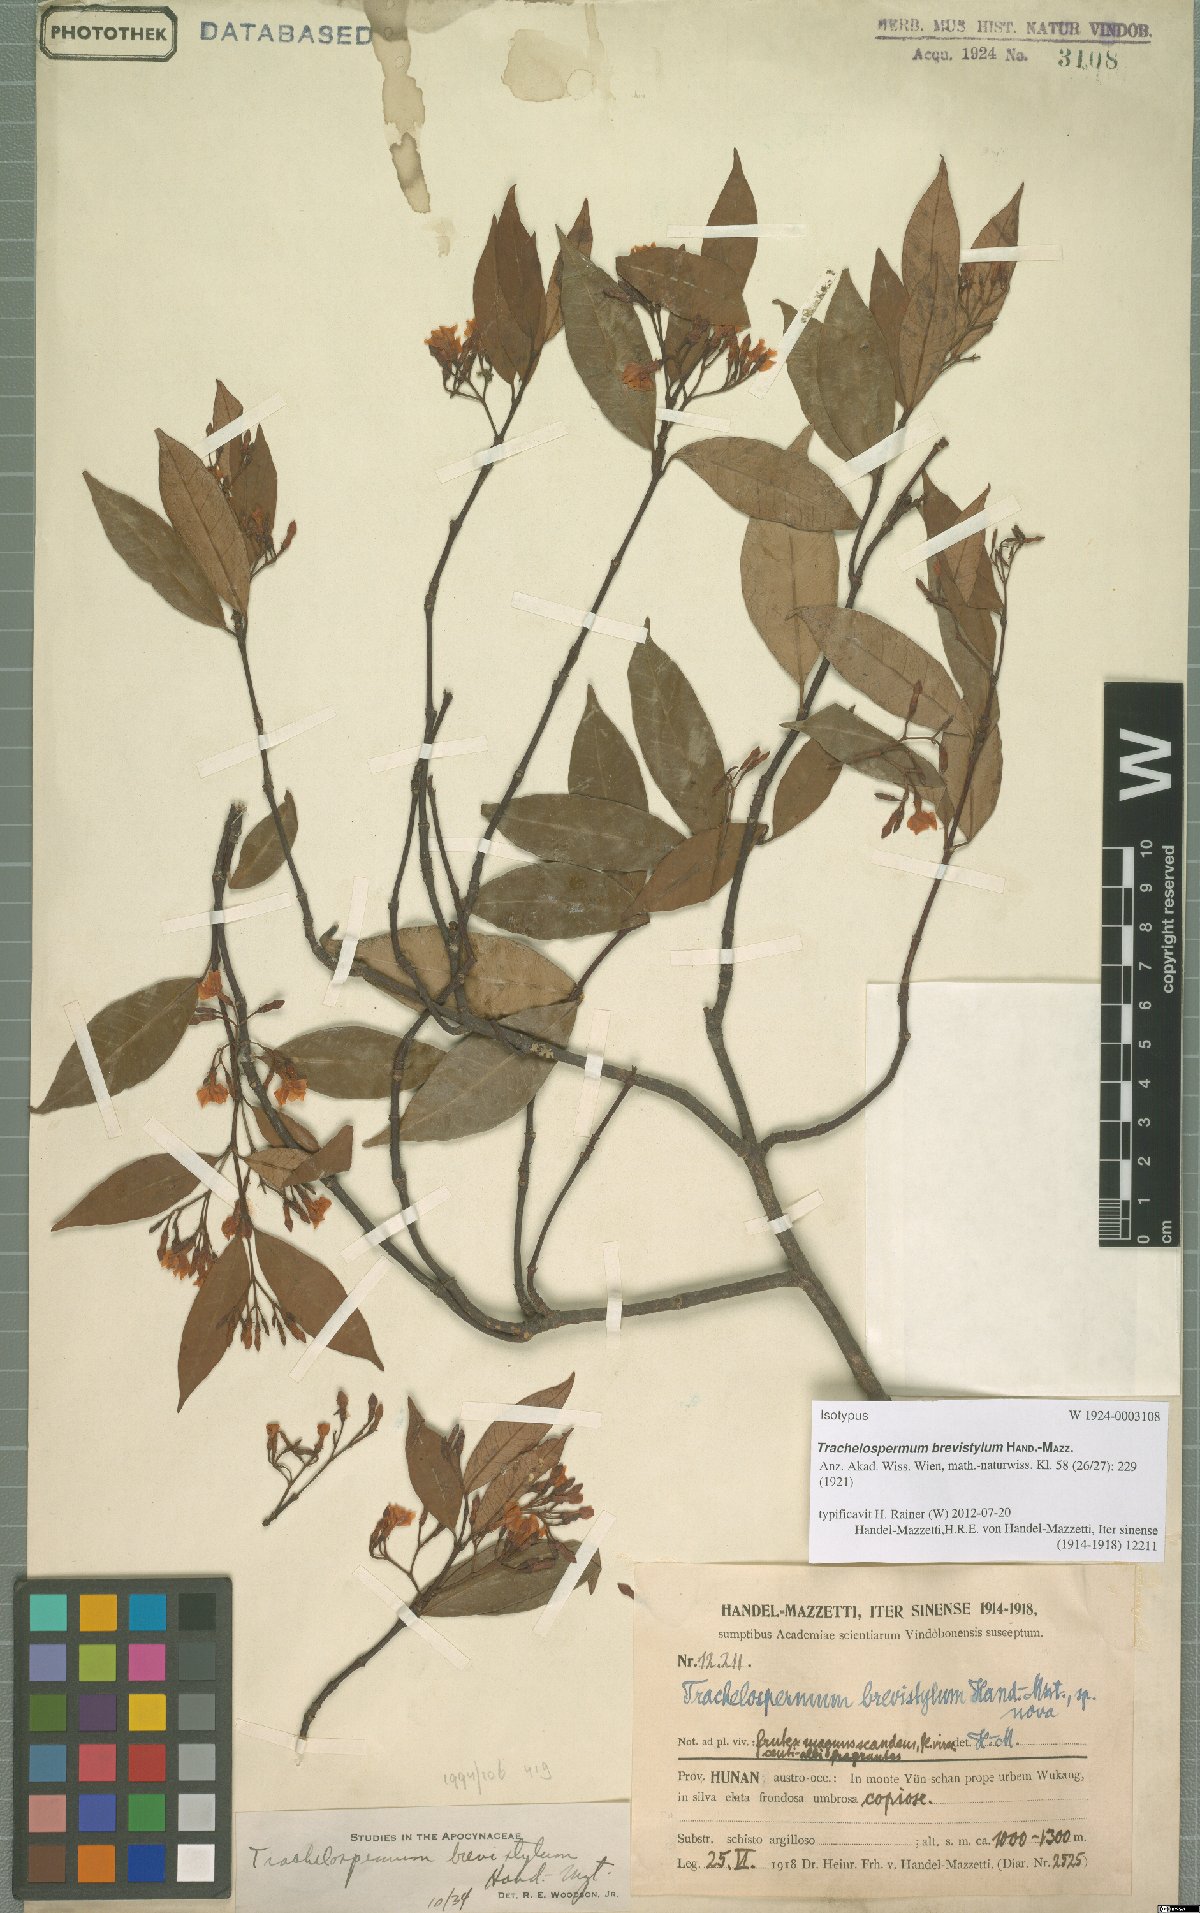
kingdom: Plantae
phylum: Tracheophyta
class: Magnoliopsida
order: Gentianales
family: Apocynaceae
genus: Trachelospermum
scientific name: Trachelospermum brevistylum
